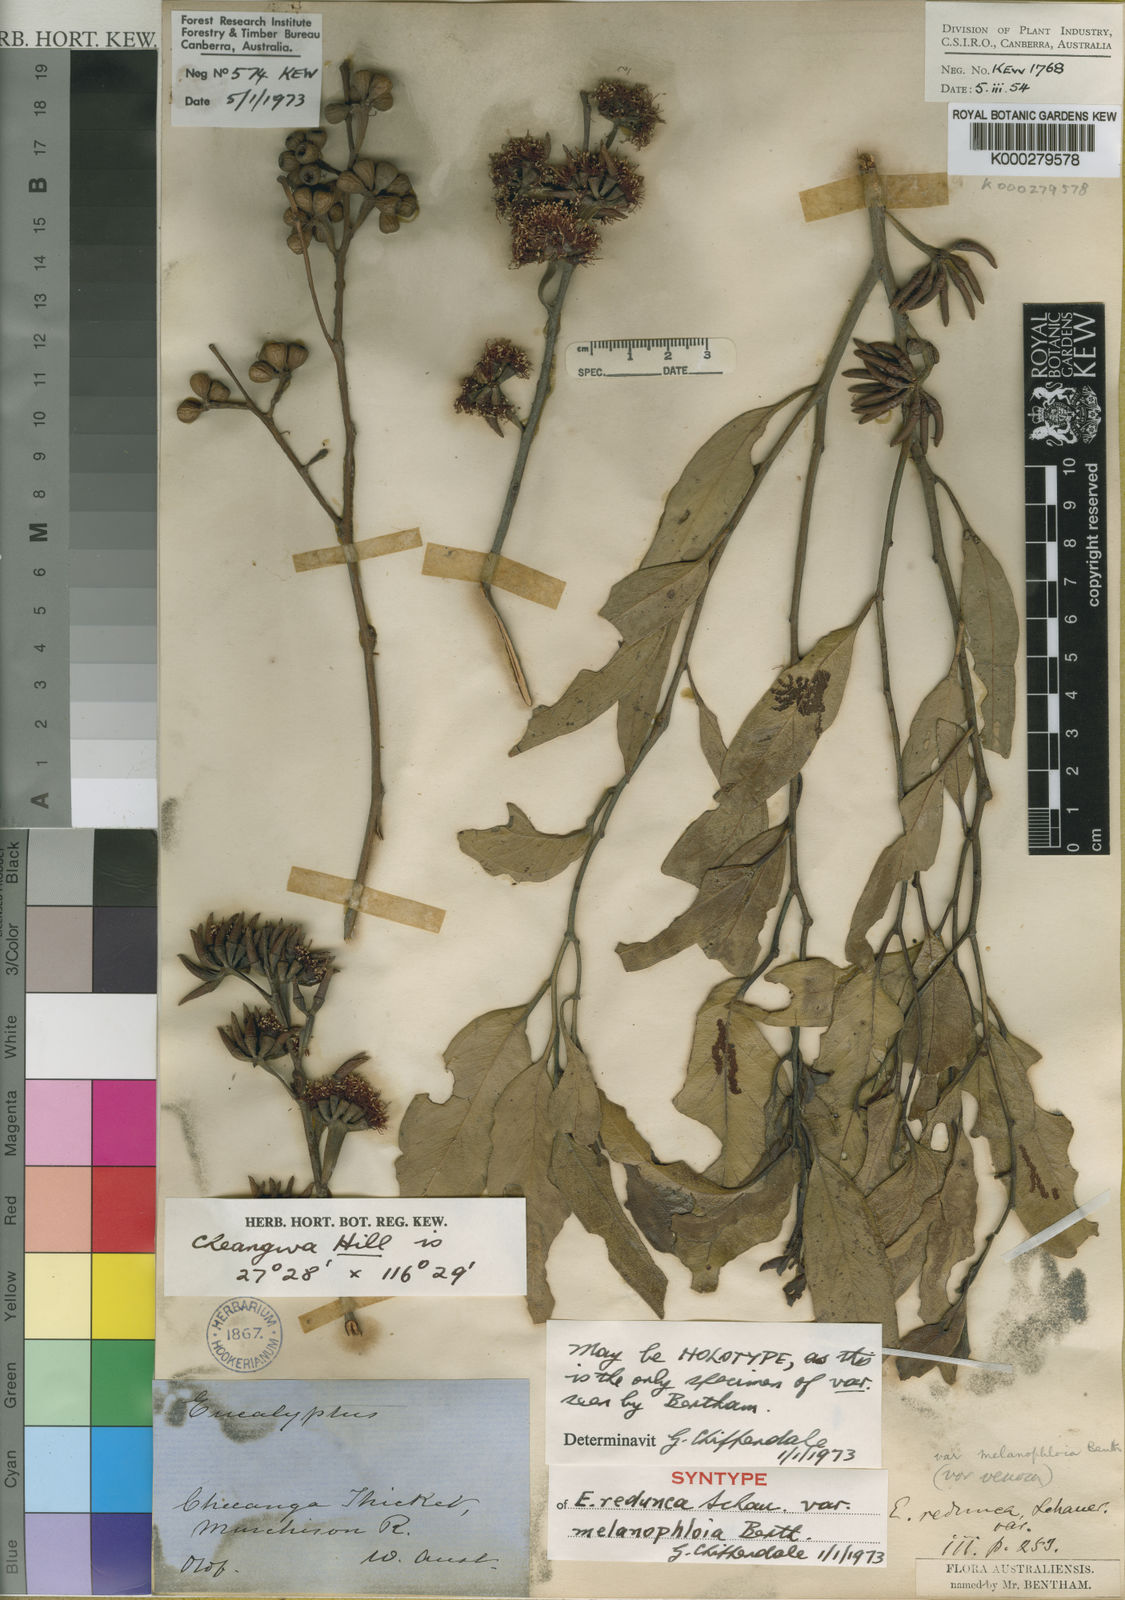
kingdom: Plantae
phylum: Tracheophyta
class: Magnoliopsida
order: Myrtales
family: Myrtaceae
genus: Eucalyptus
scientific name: Eucalyptus arachnaea
